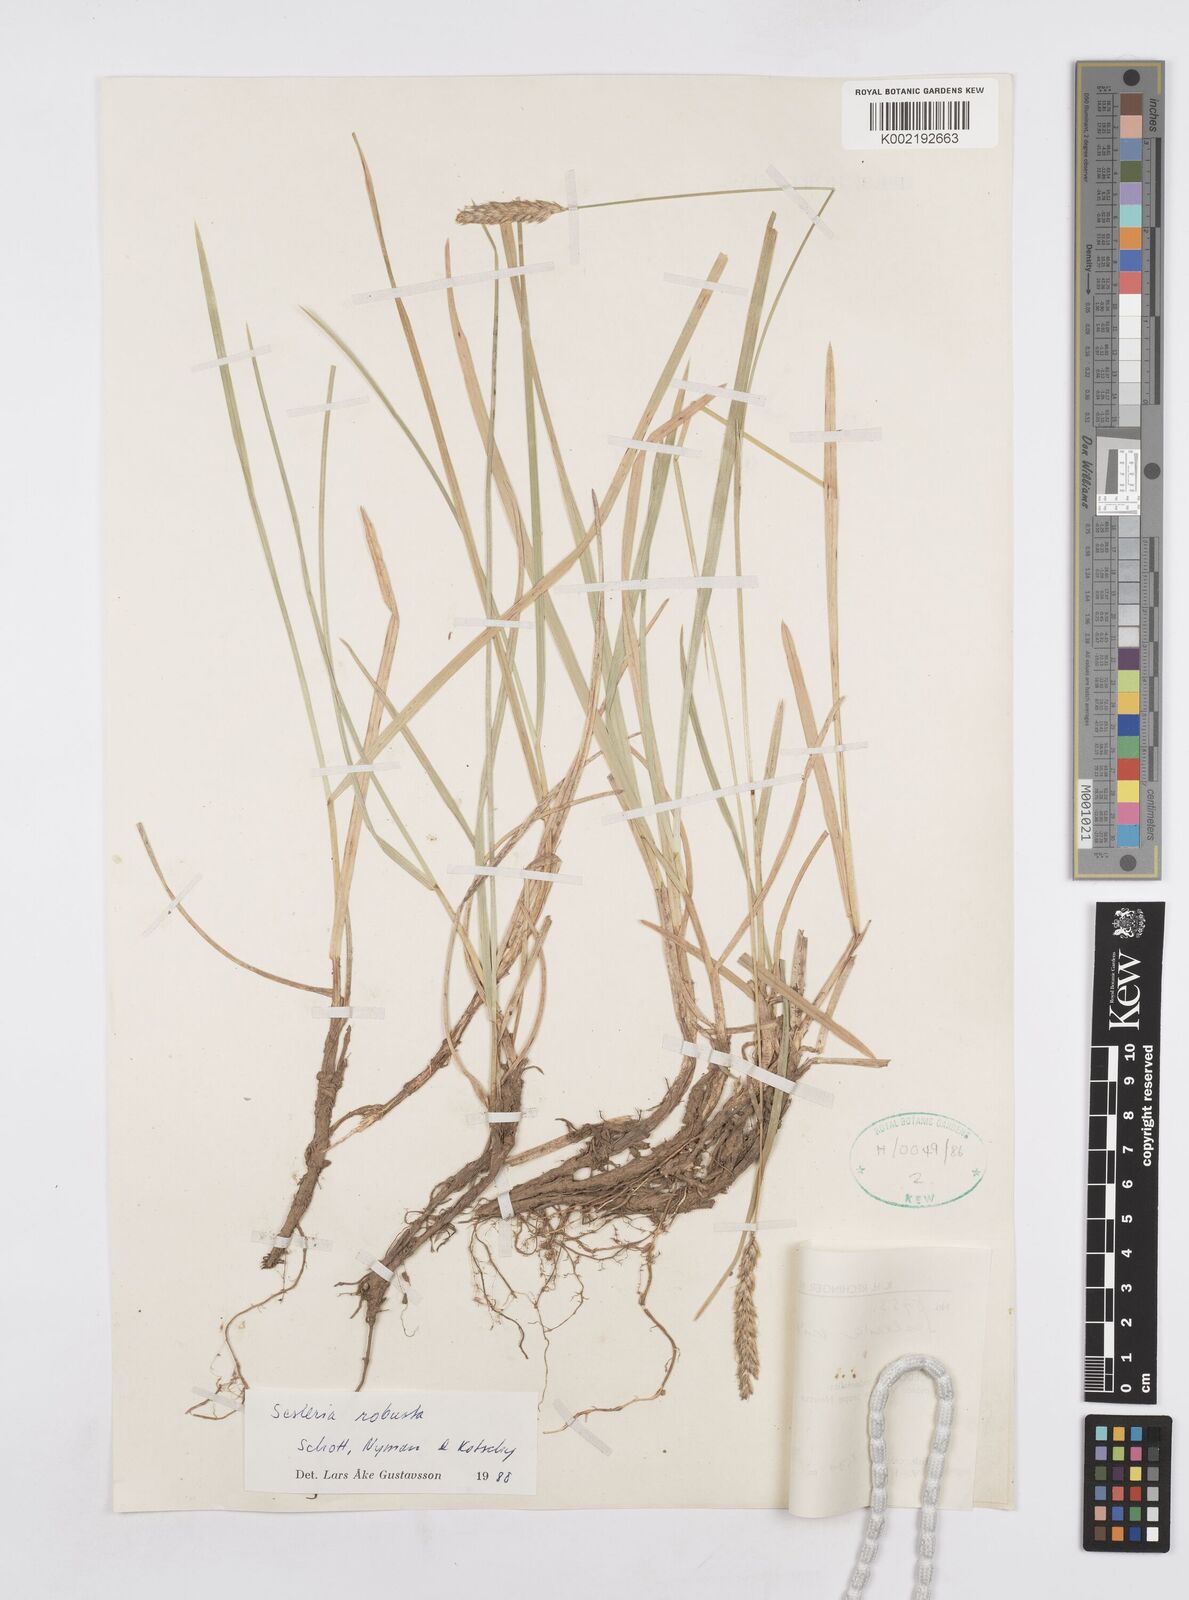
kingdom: Plantae
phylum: Tracheophyta
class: Liliopsida
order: Poales
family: Poaceae
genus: Sesleria
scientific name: Sesleria robusta
